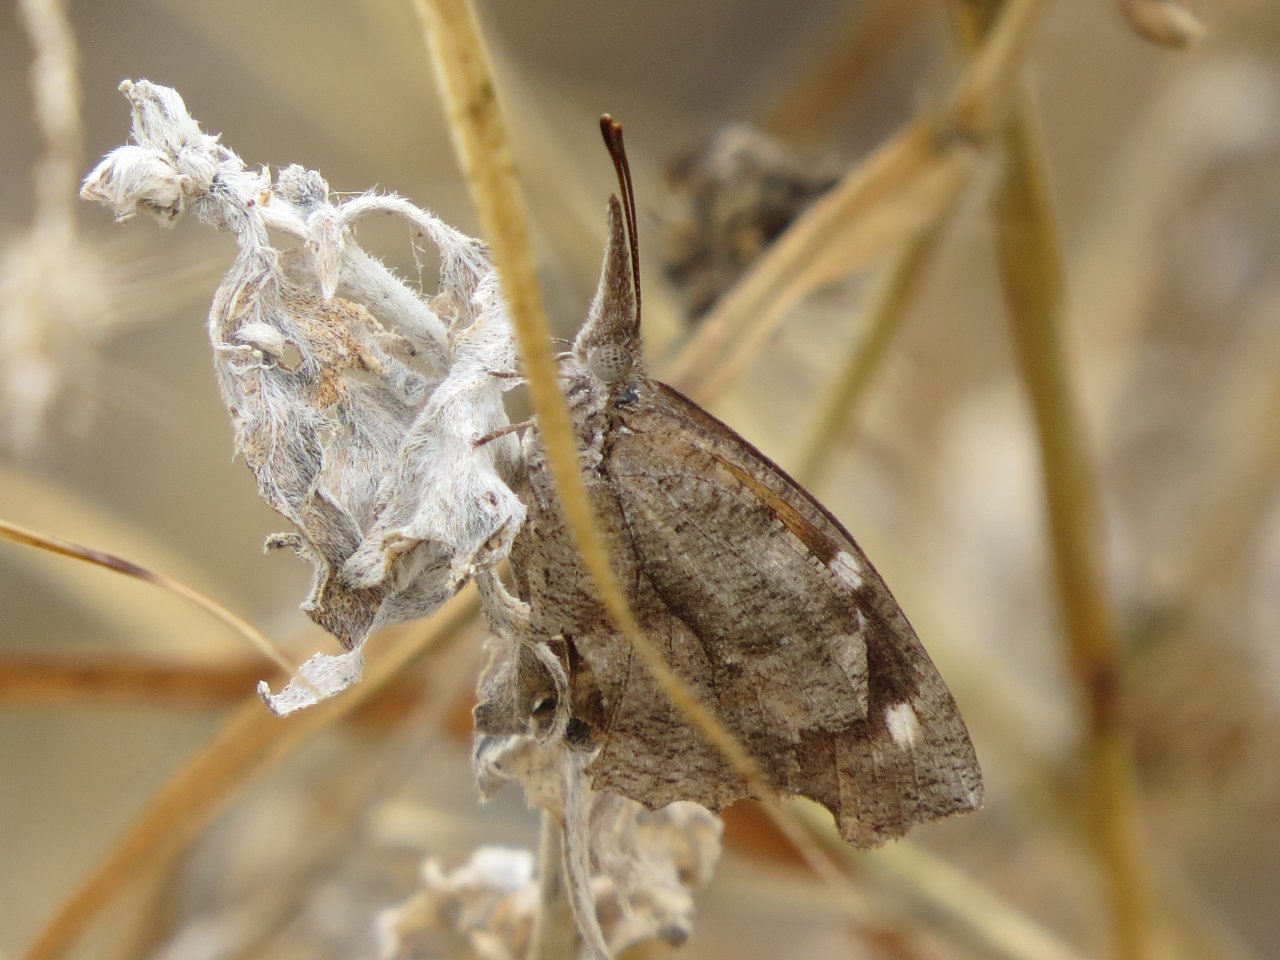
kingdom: Animalia
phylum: Arthropoda
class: Insecta
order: Lepidoptera
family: Nymphalidae
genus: Libytheana
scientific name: Libytheana carinenta
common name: American Snout
